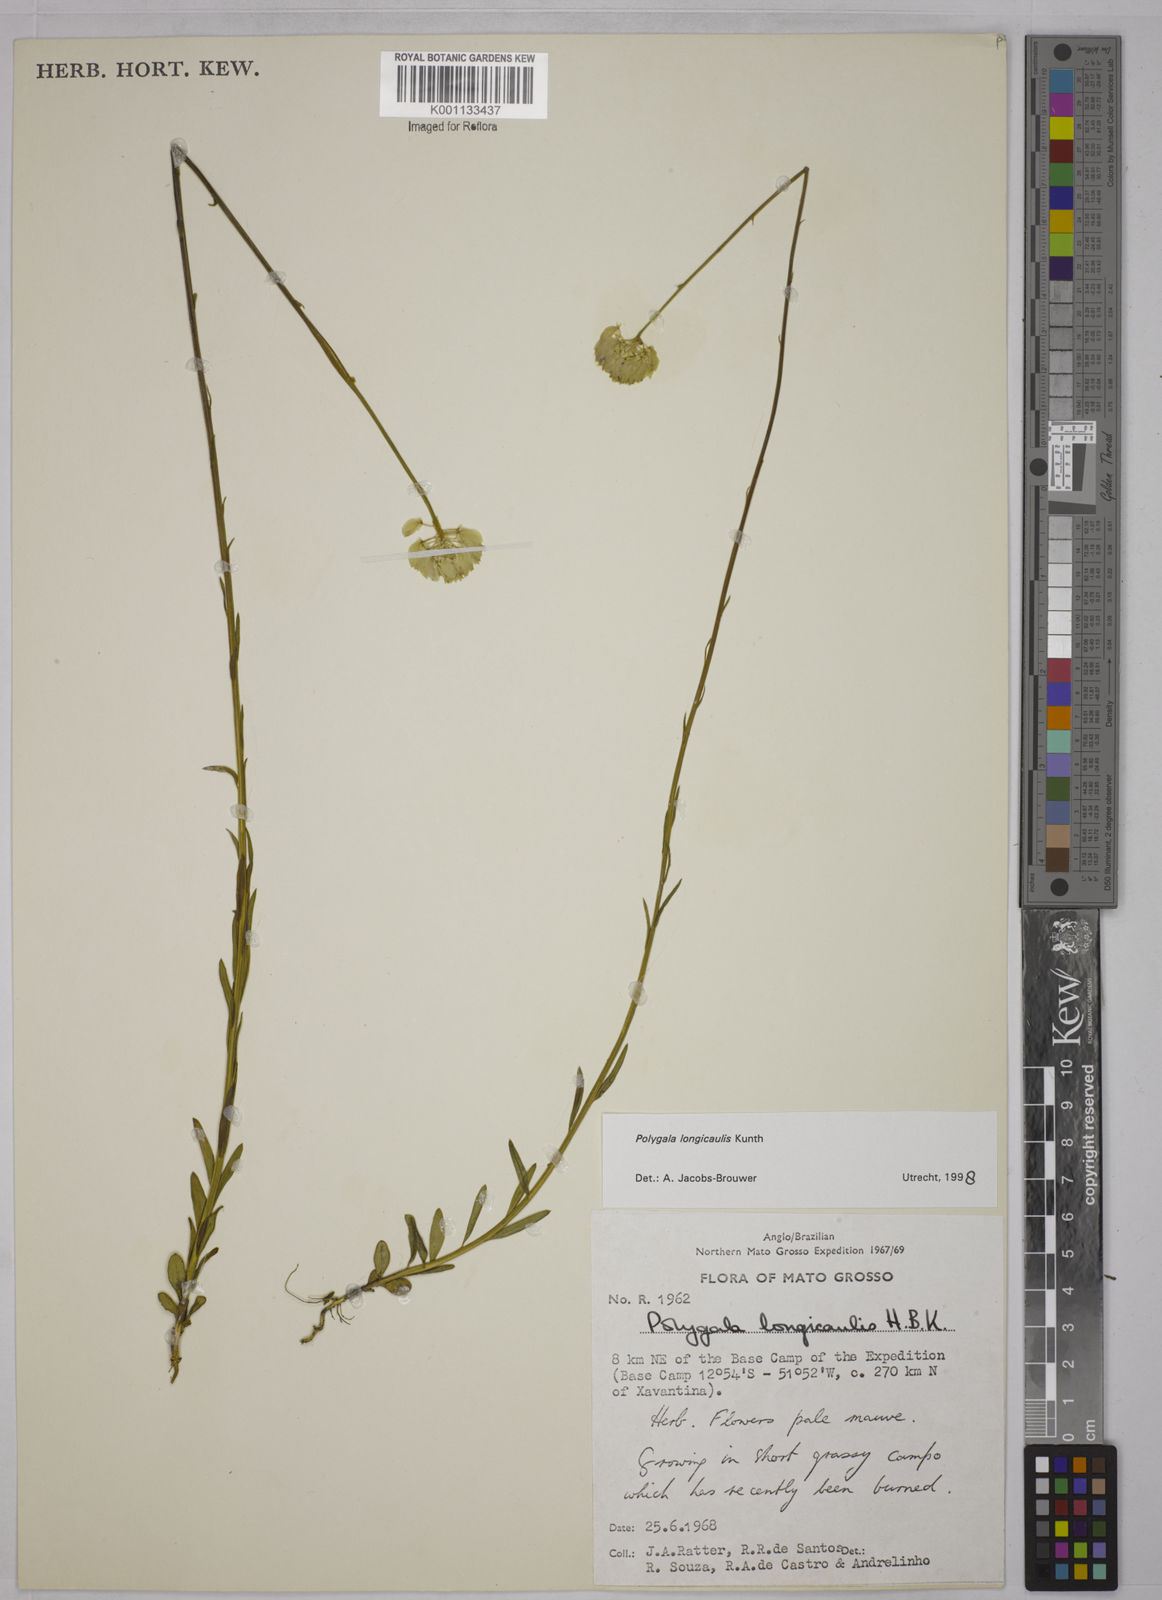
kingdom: Plantae
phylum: Tracheophyta
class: Magnoliopsida
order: Fabales
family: Polygalaceae
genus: Polygala
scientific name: Polygala longicaulis
